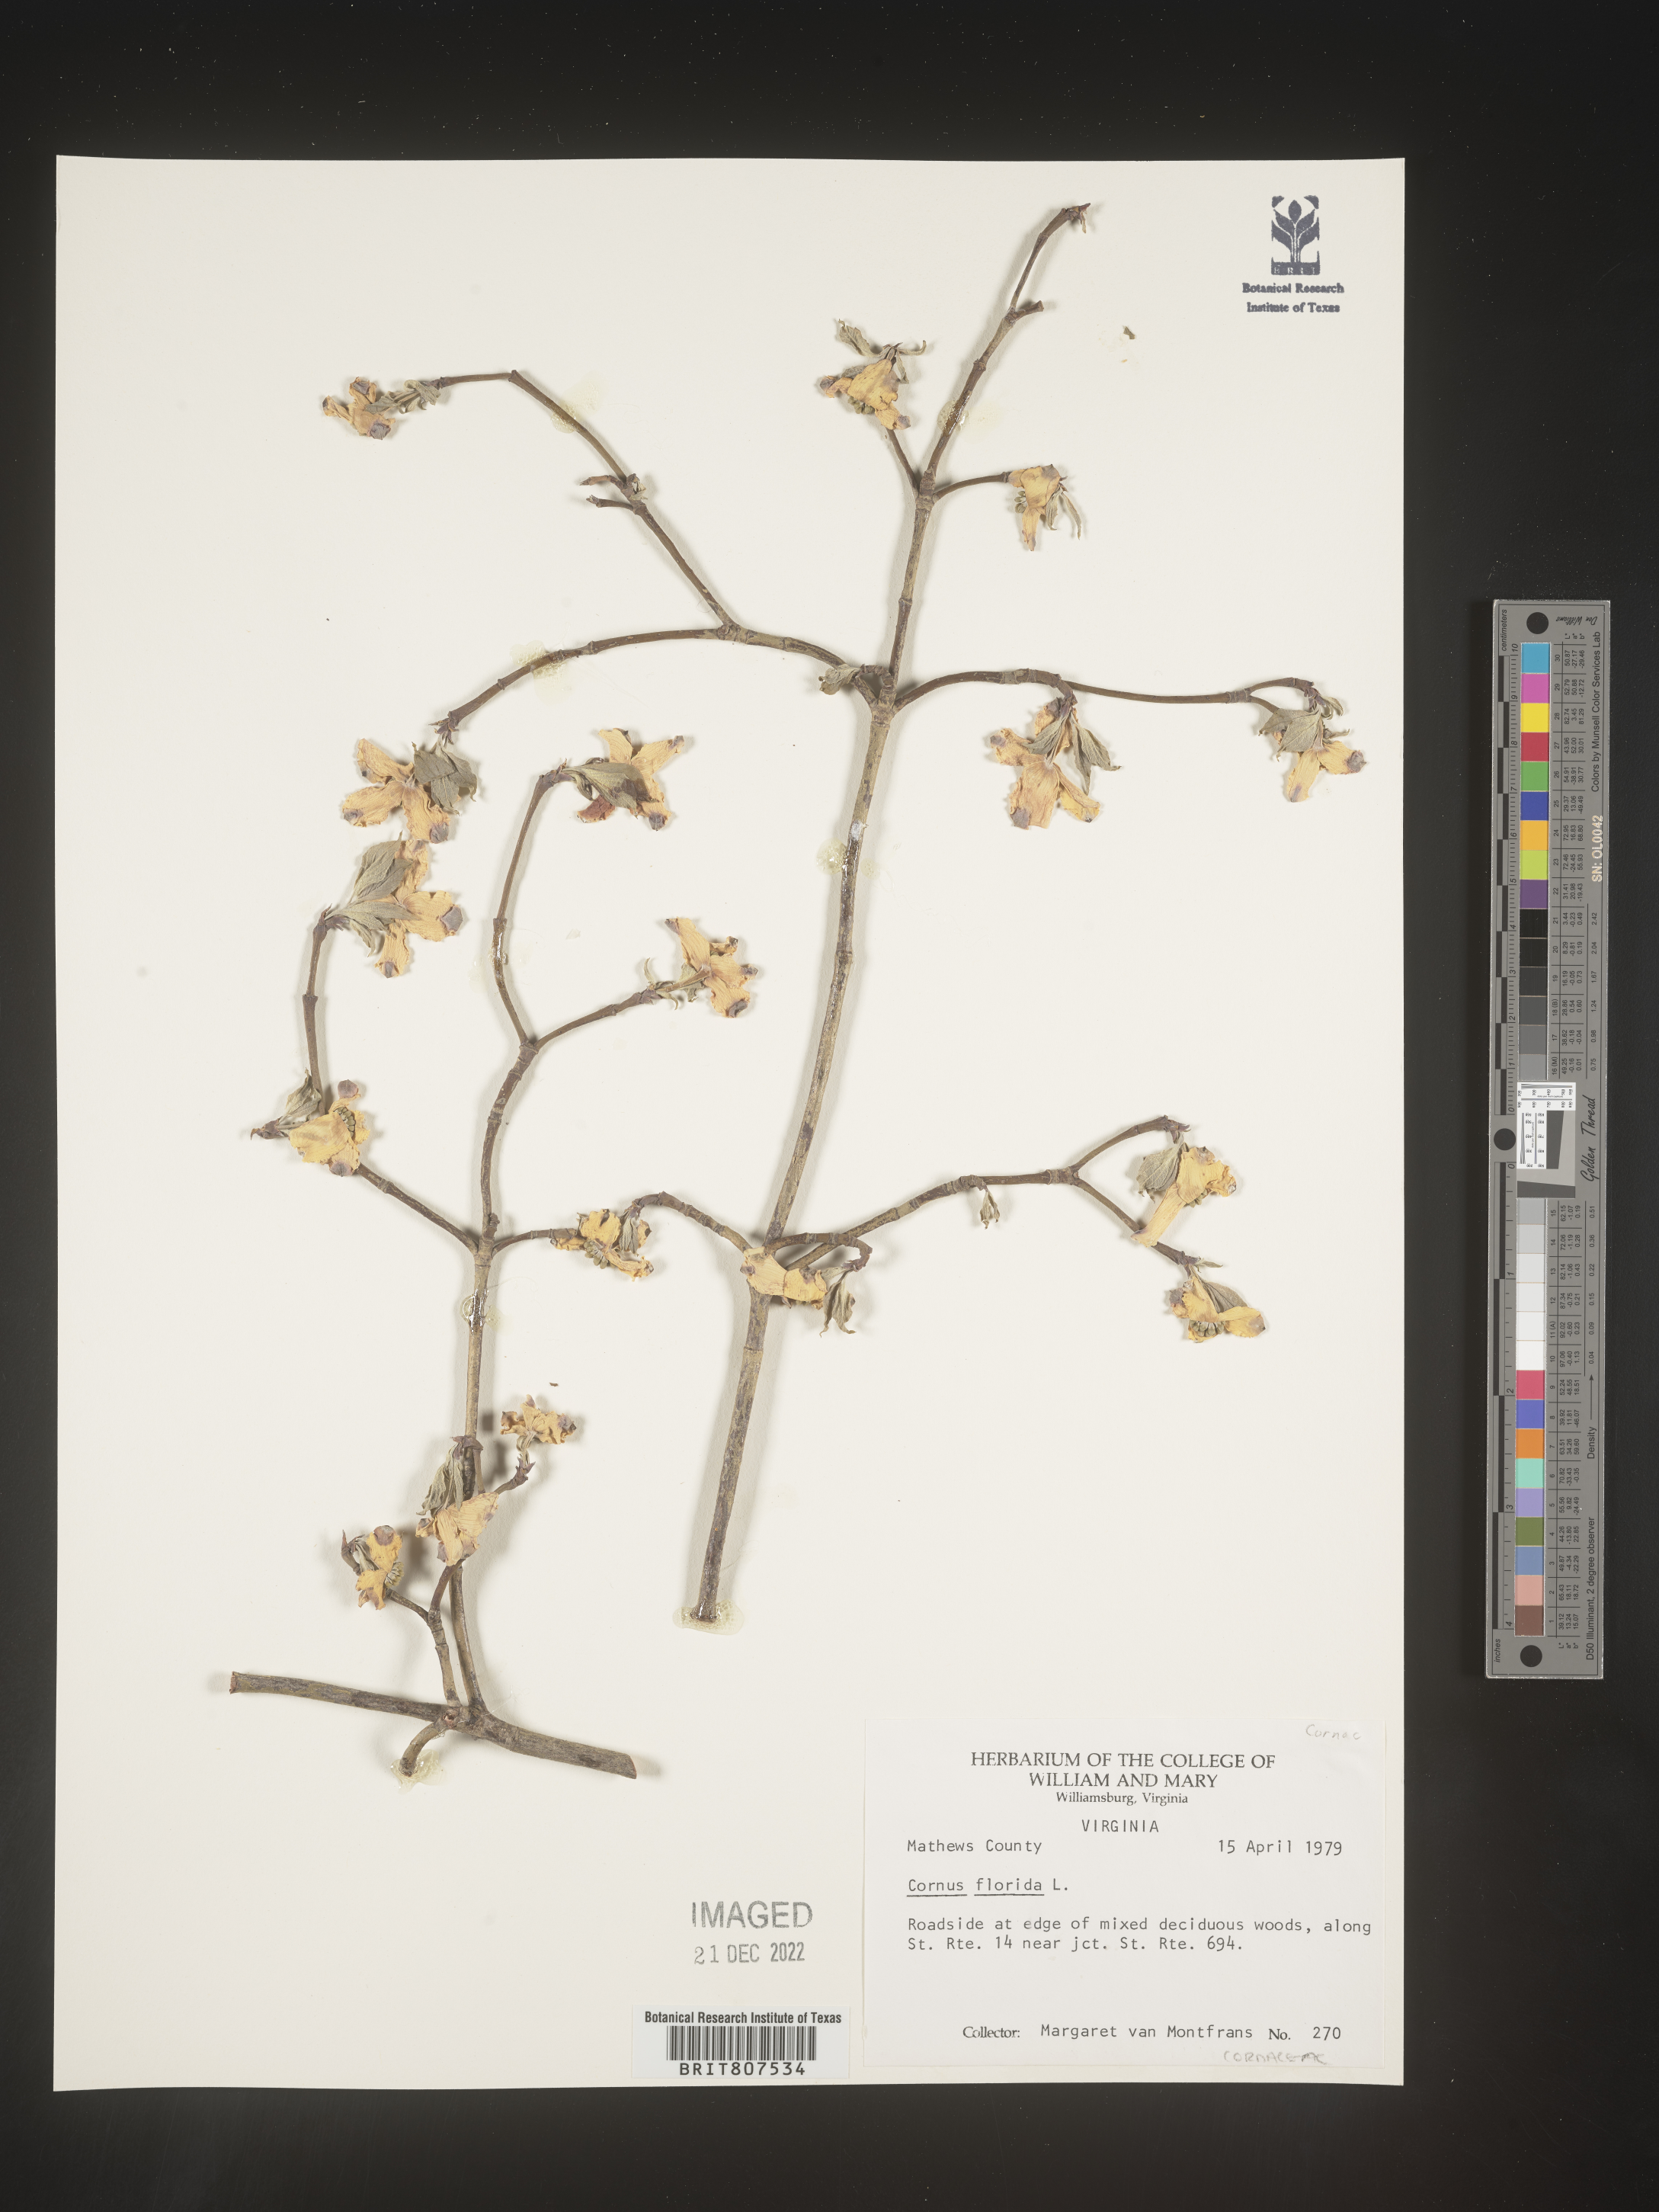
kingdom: Plantae
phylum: Tracheophyta
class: Magnoliopsida
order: Cornales
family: Cornaceae
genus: Cornus
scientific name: Cornus florida
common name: Flowering dogwood
